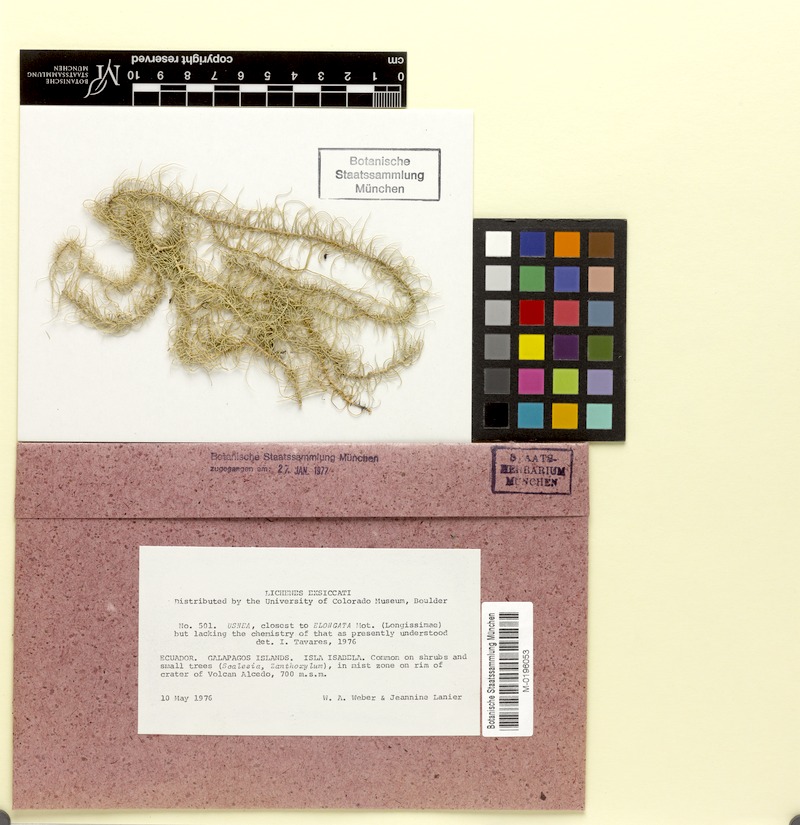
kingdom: Fungi
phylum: Ascomycota
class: Lecanoromycetes
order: Lecanorales
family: Parmeliaceae
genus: Usnea
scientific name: Usnea subgracilis
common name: Beard lichen
